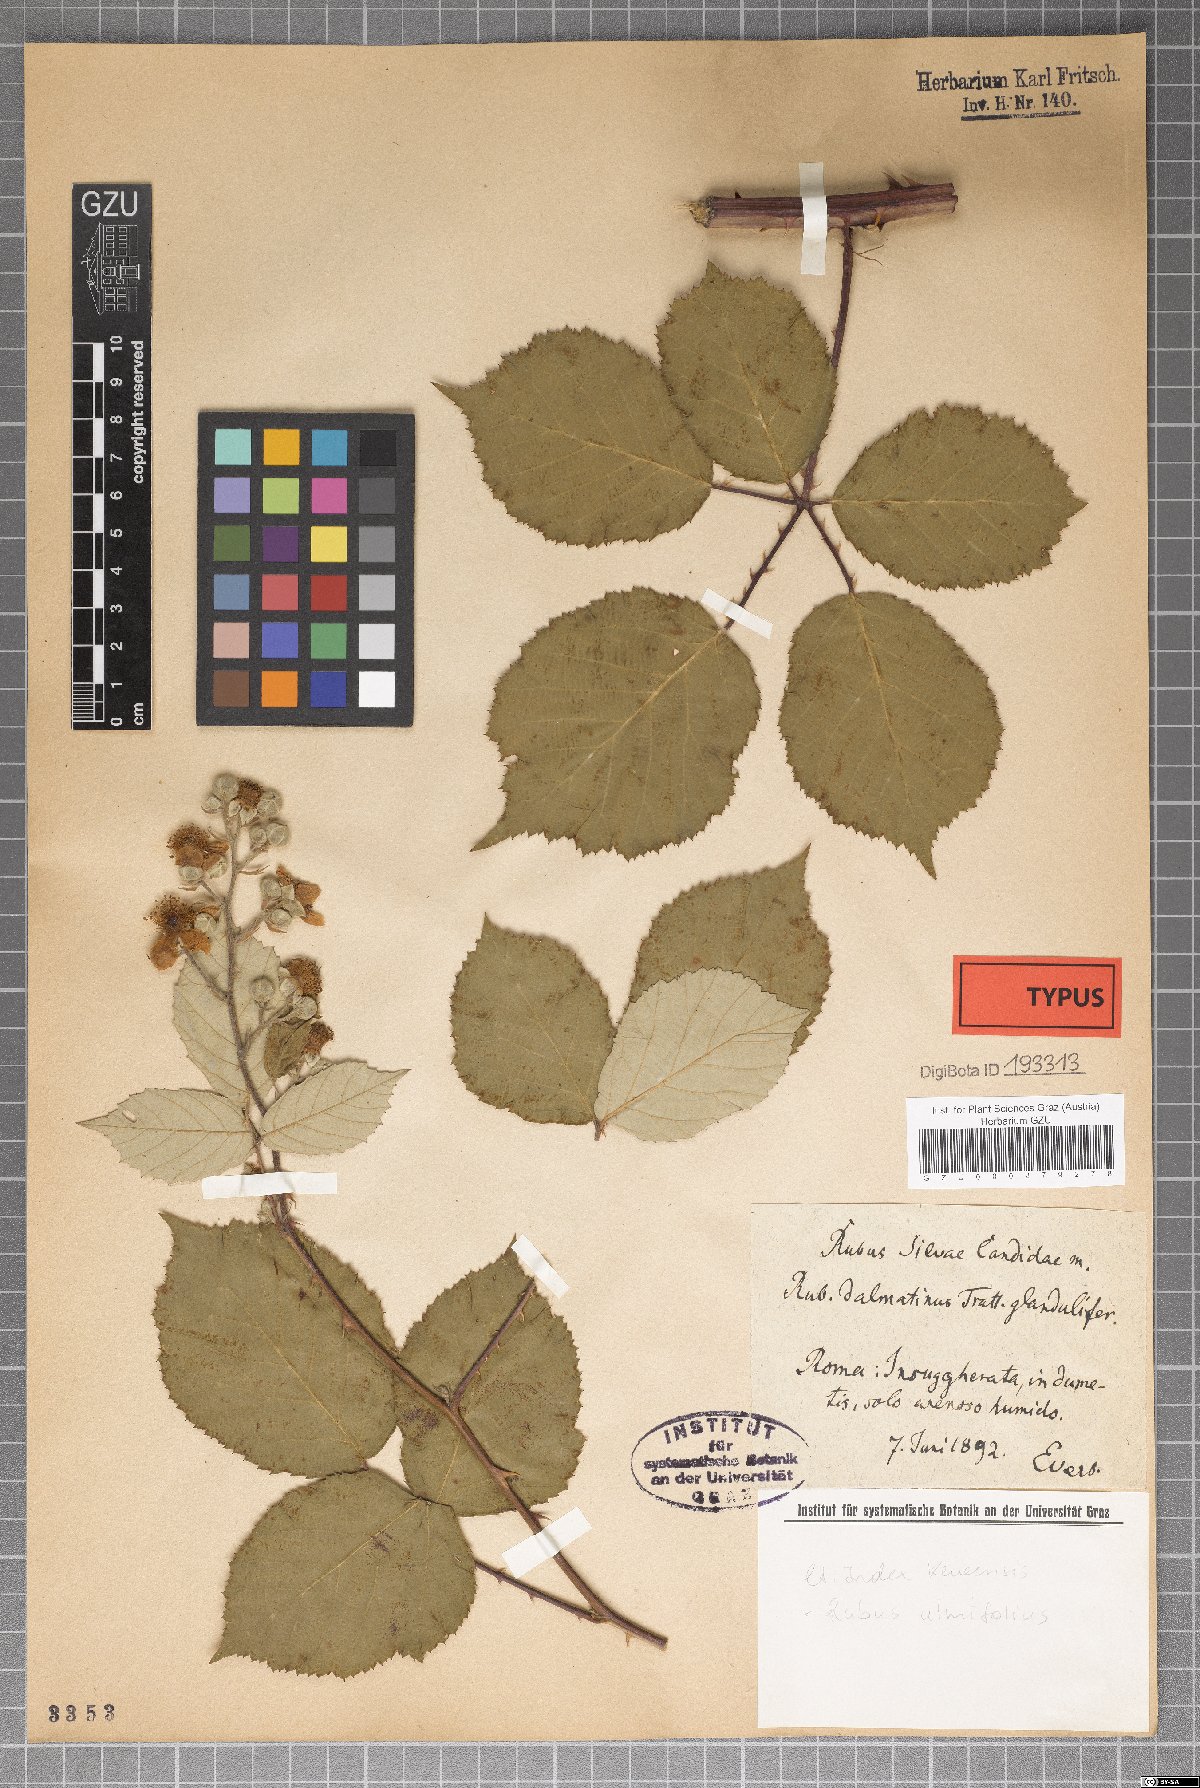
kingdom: Plantae
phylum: Tracheophyta
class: Magnoliopsida
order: Rosales
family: Rosaceae
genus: Rubus
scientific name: Rubus silvae-candidae
